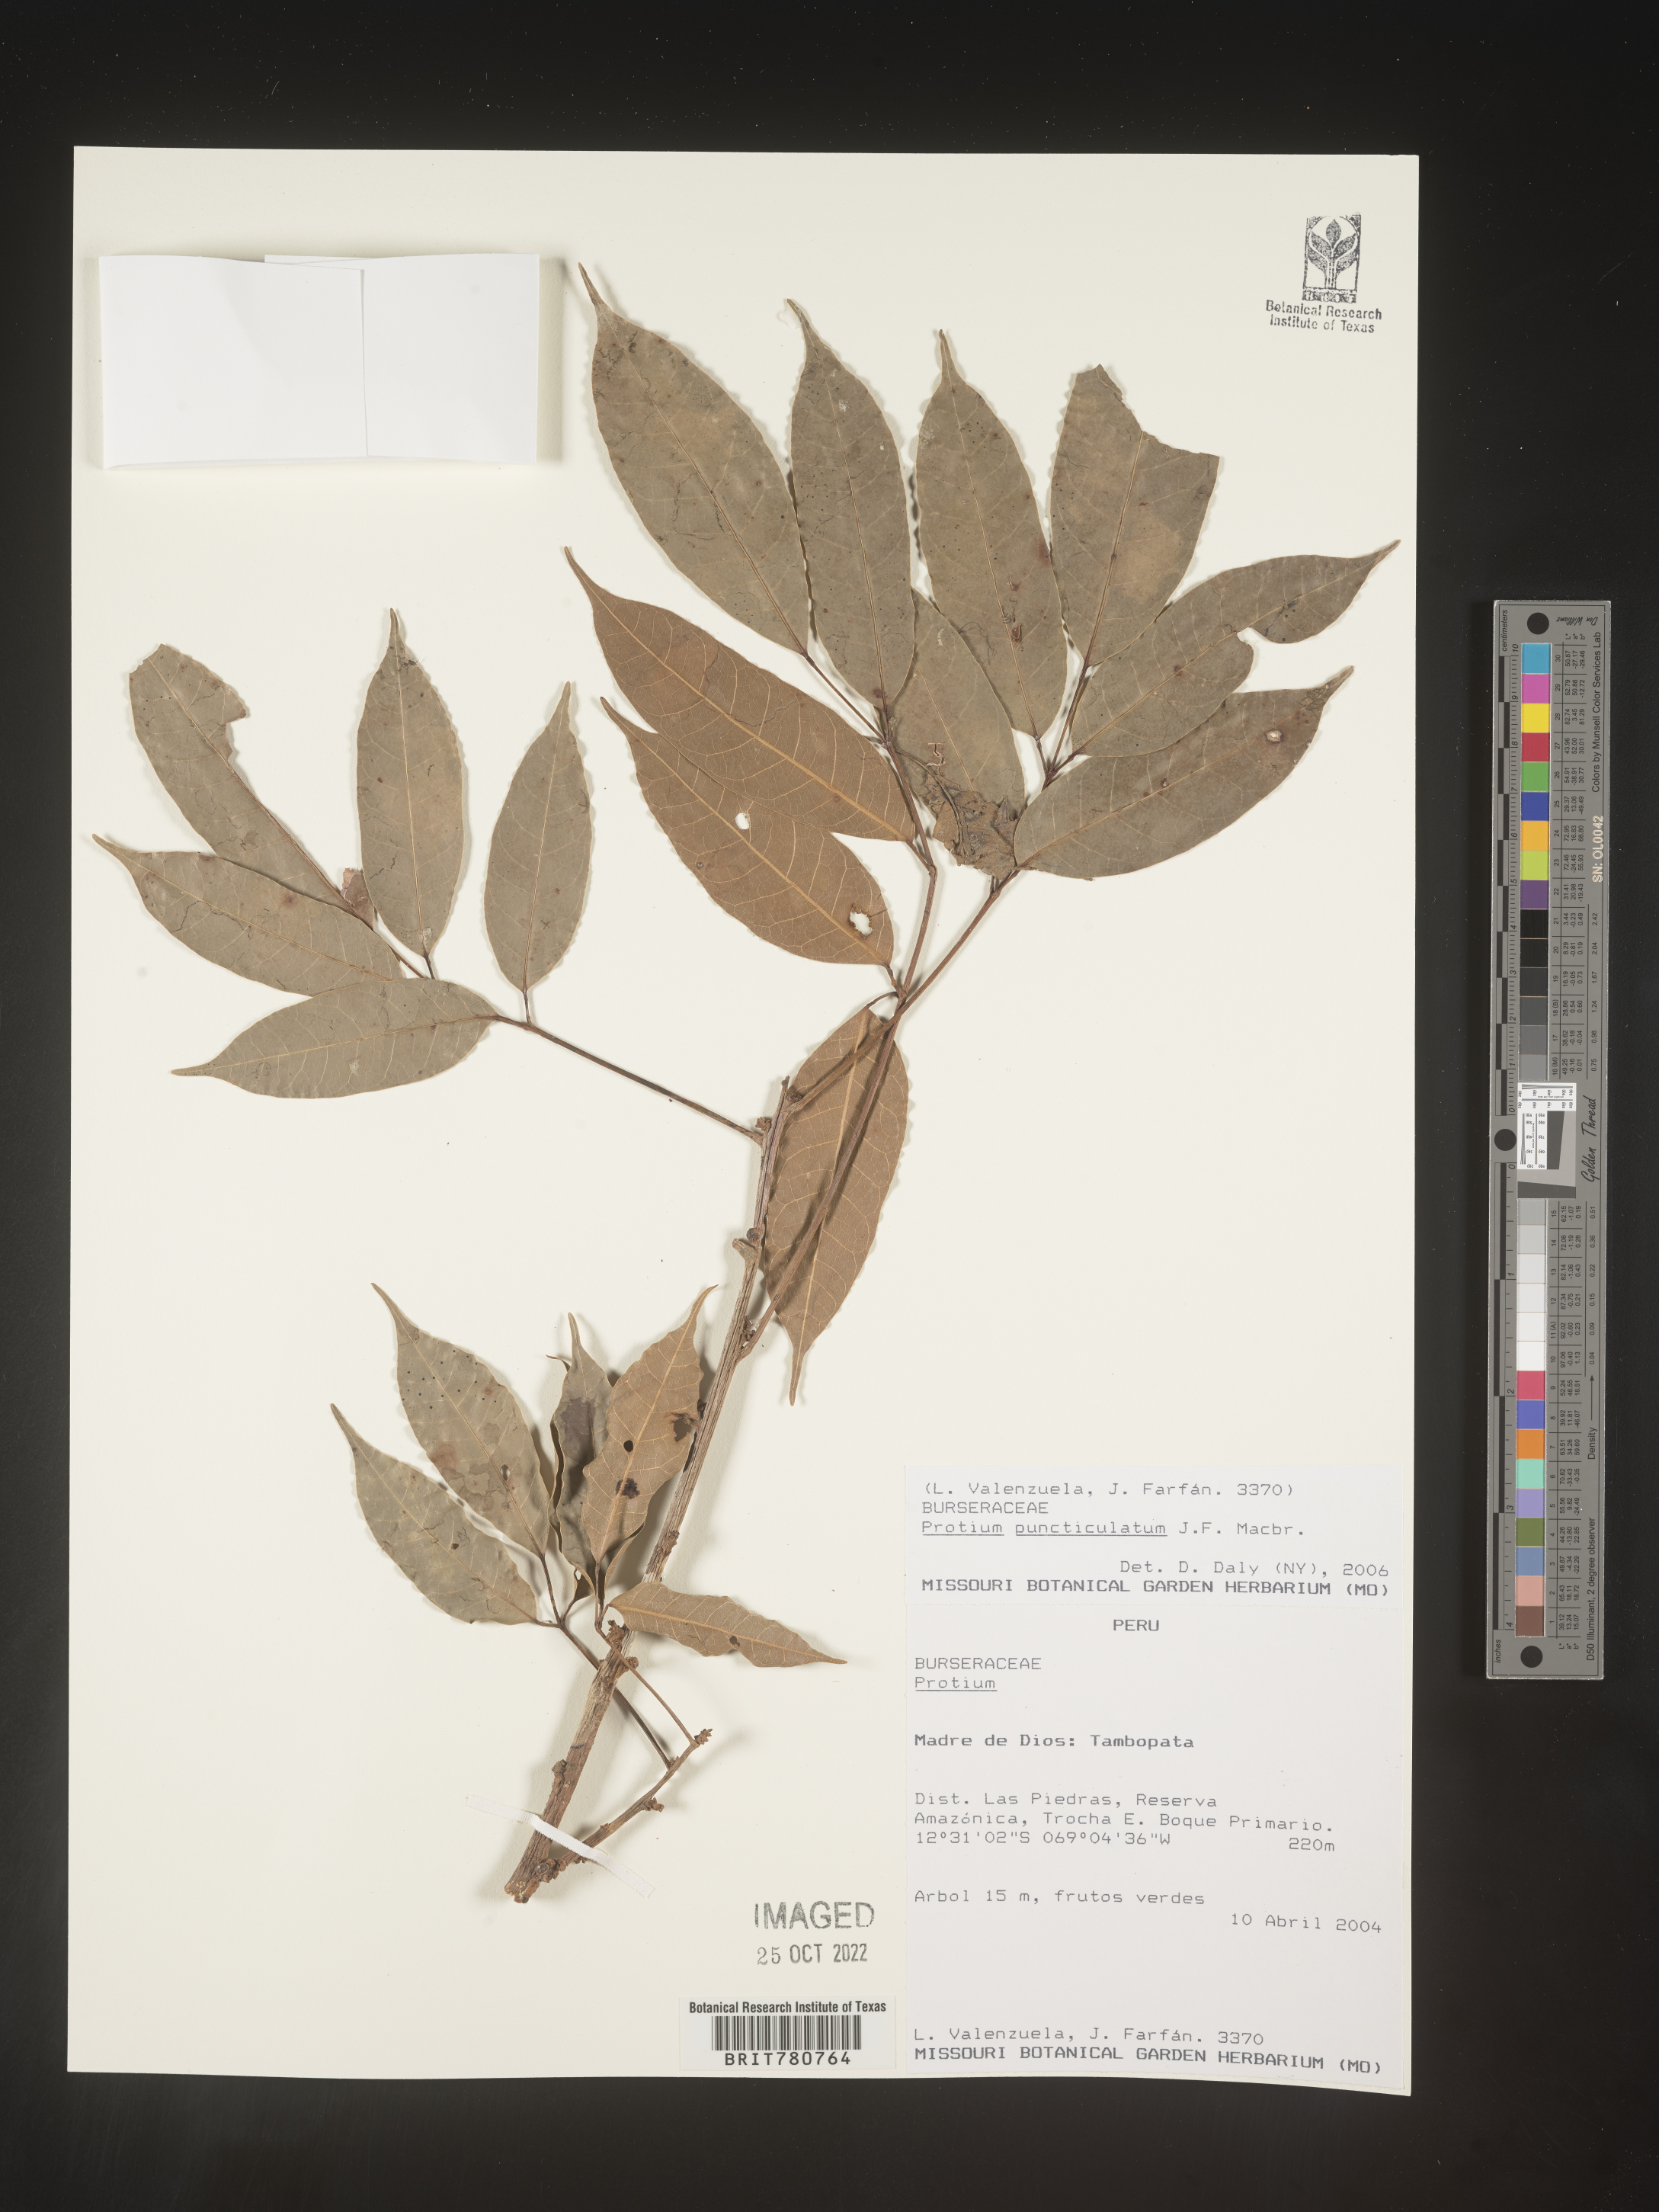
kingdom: Plantae
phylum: Tracheophyta
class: Magnoliopsida
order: Sapindales
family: Burseraceae
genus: Protium
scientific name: Protium
